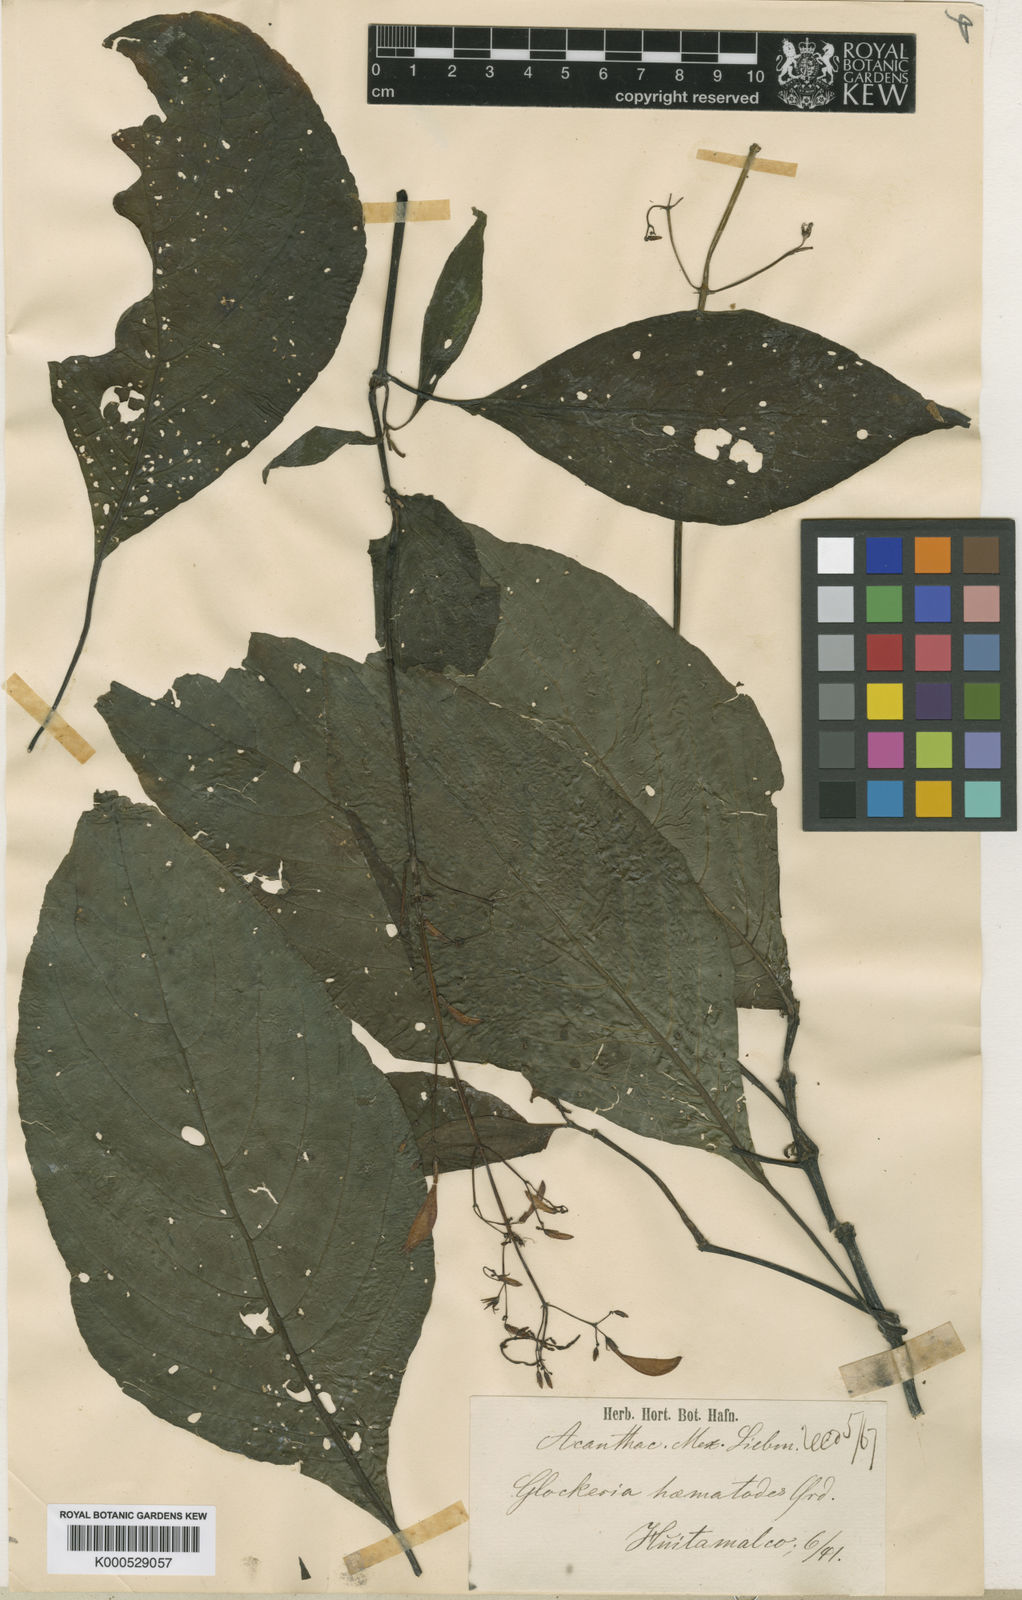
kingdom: Plantae
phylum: Tracheophyta
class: Magnoliopsida
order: Lamiales
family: Acanthaceae
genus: Stenostephanus
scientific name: Stenostephanus haematodes
